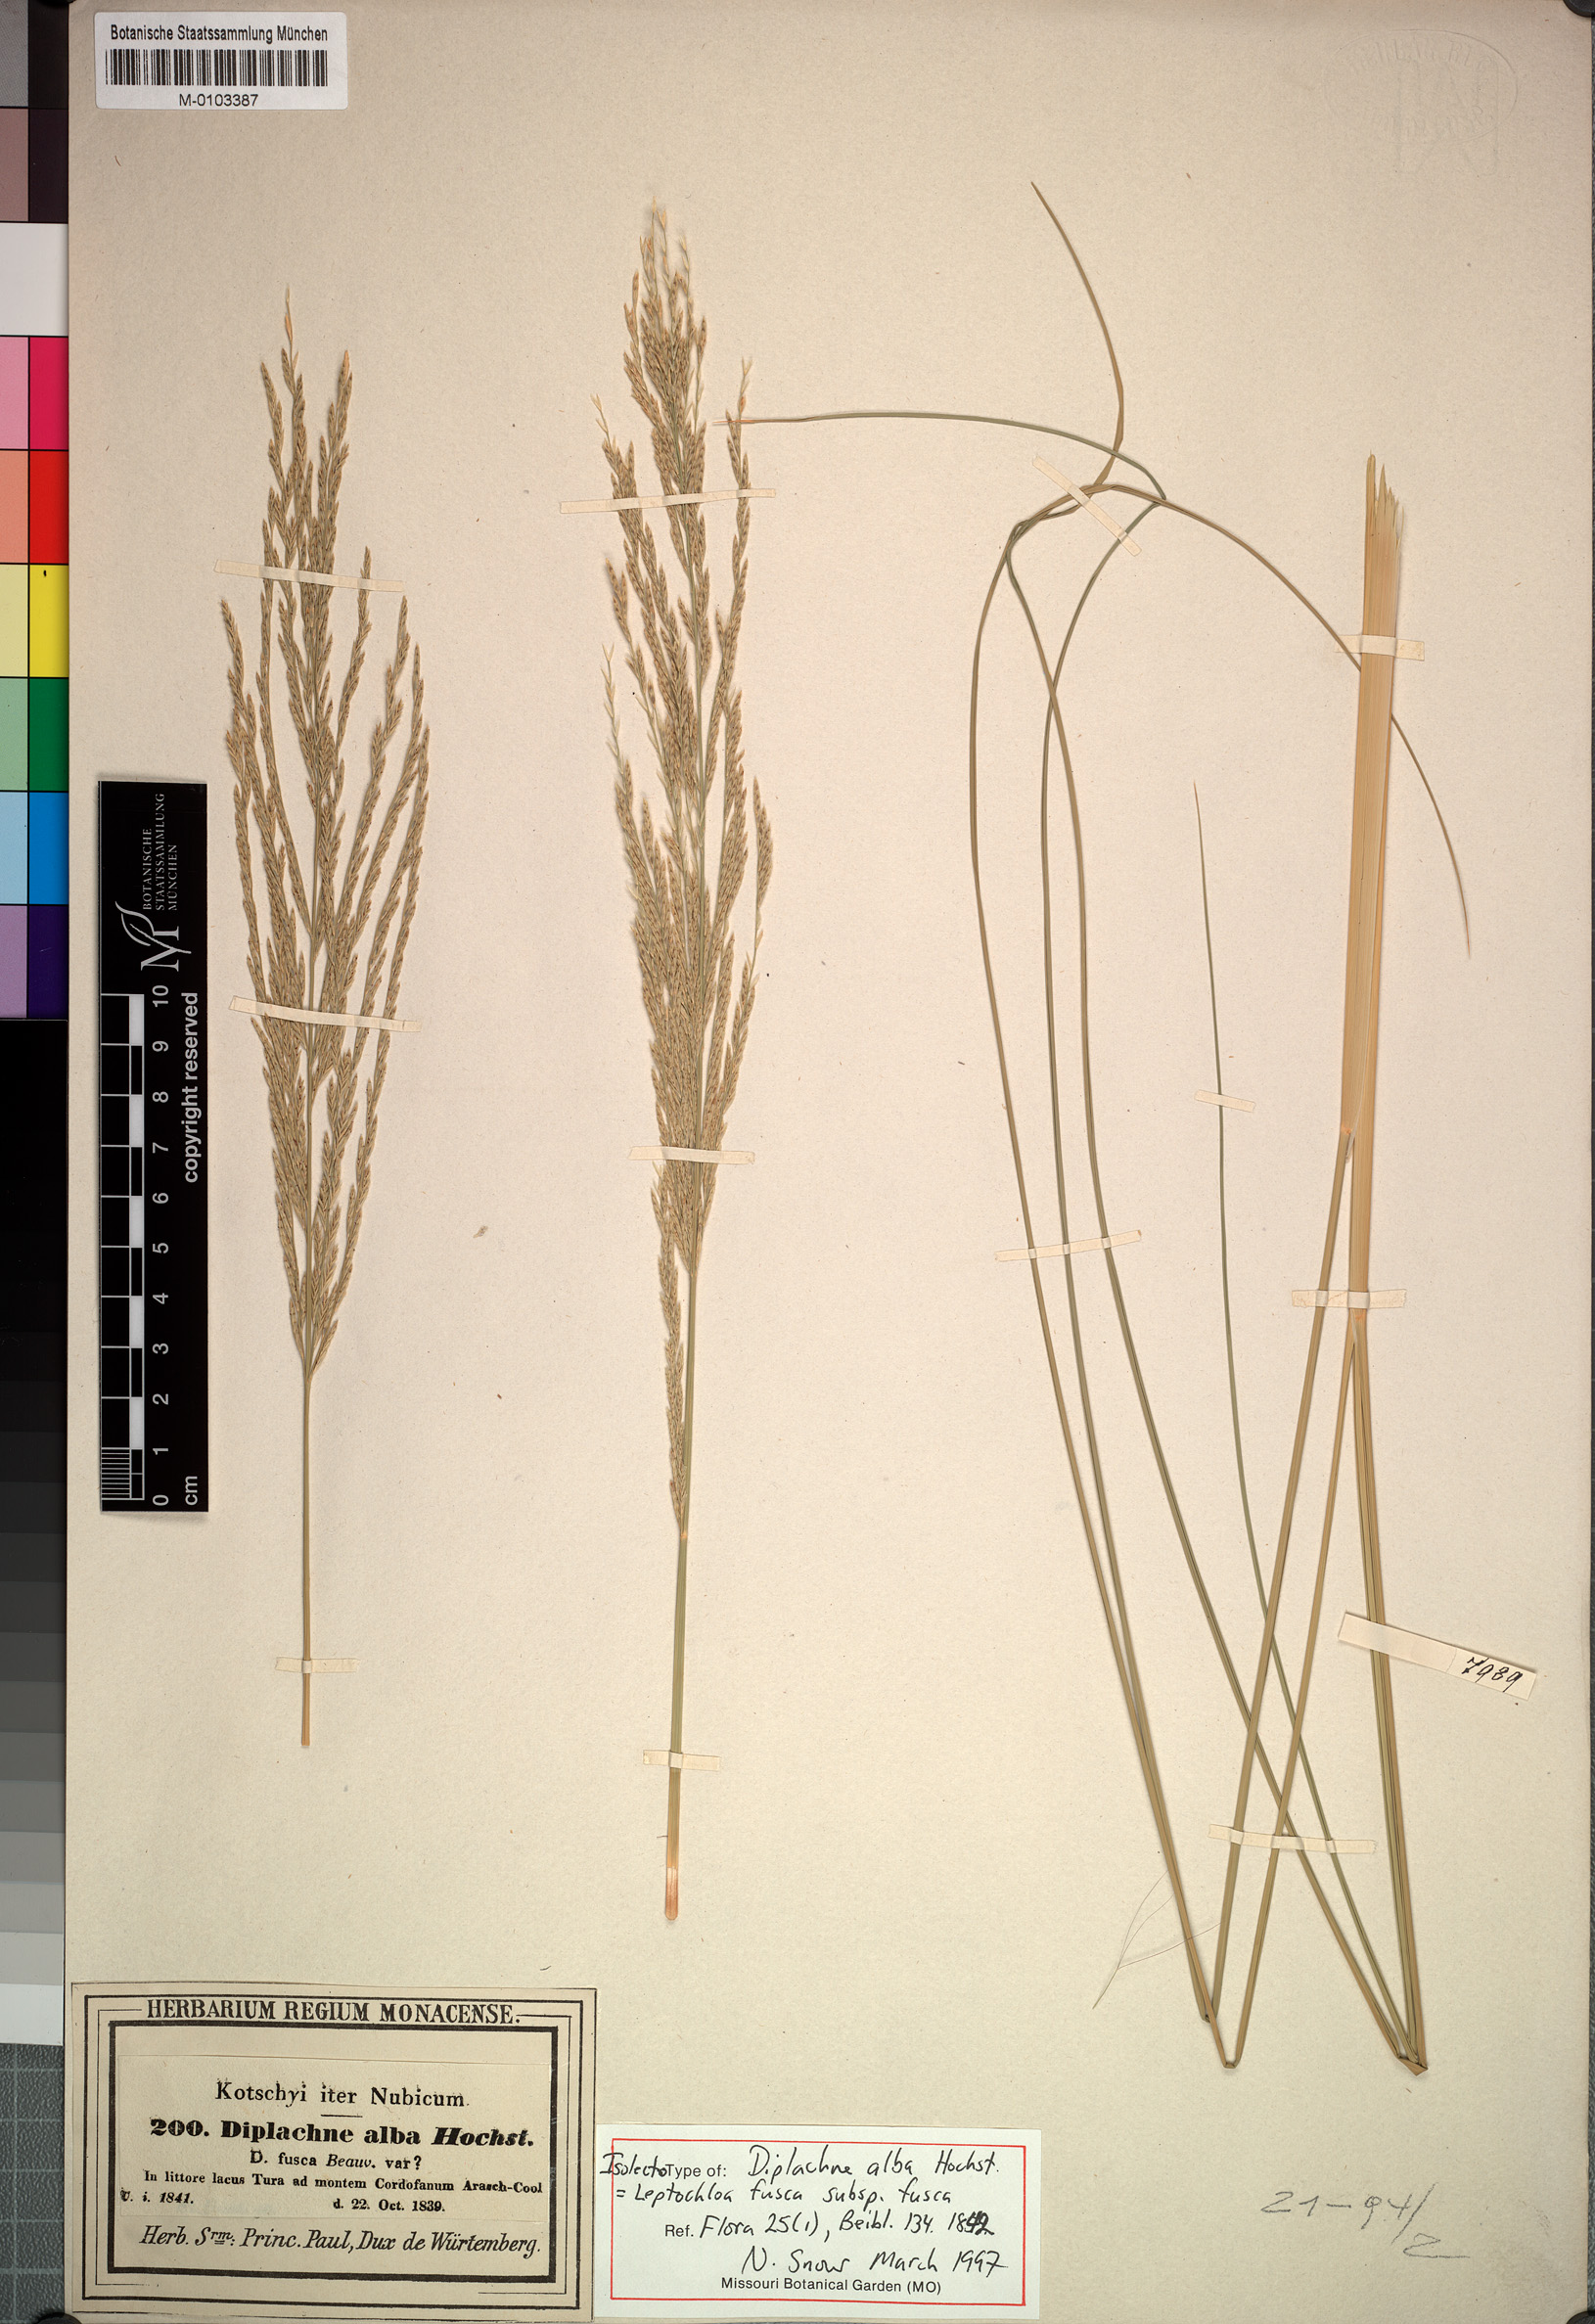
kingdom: Plantae
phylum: Tracheophyta
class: Liliopsida
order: Poales
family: Poaceae
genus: Diplachne
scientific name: Diplachne fusca
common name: Brown beetle grass
